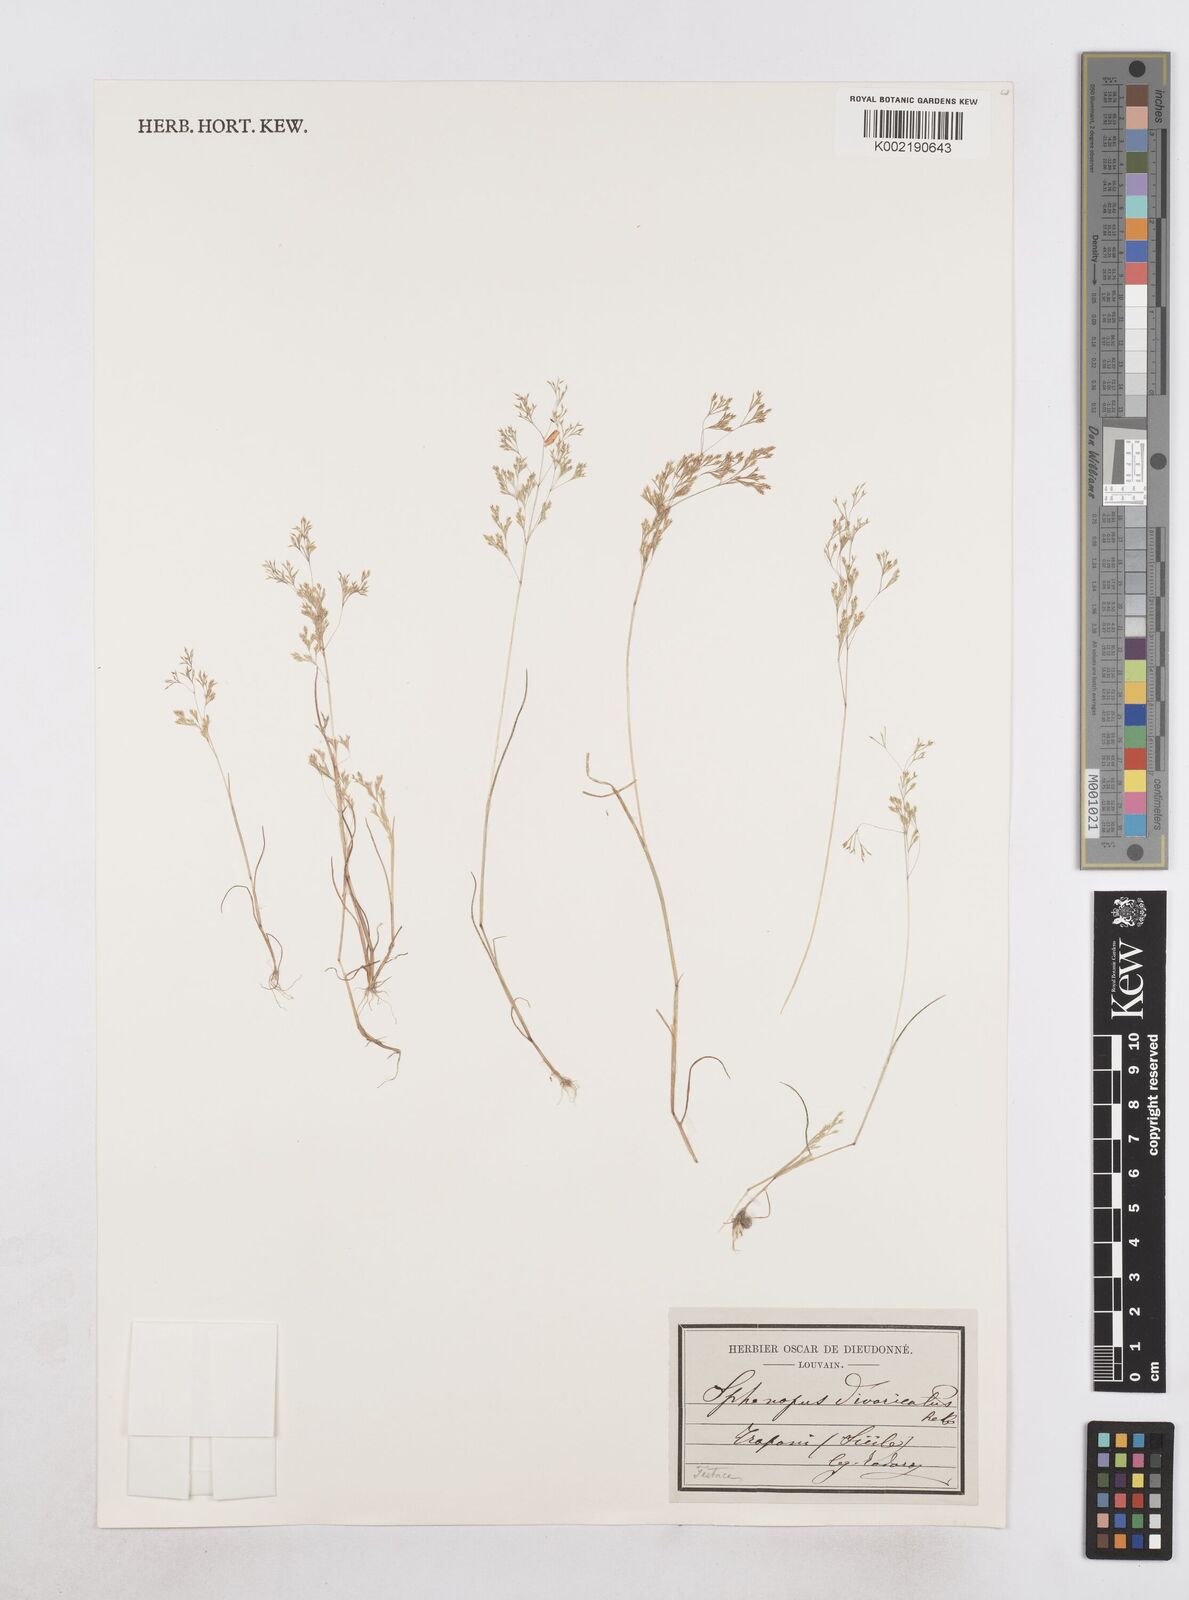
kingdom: Plantae
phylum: Tracheophyta
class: Liliopsida
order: Poales
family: Poaceae
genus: Sphenopus
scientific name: Sphenopus divaricatus
